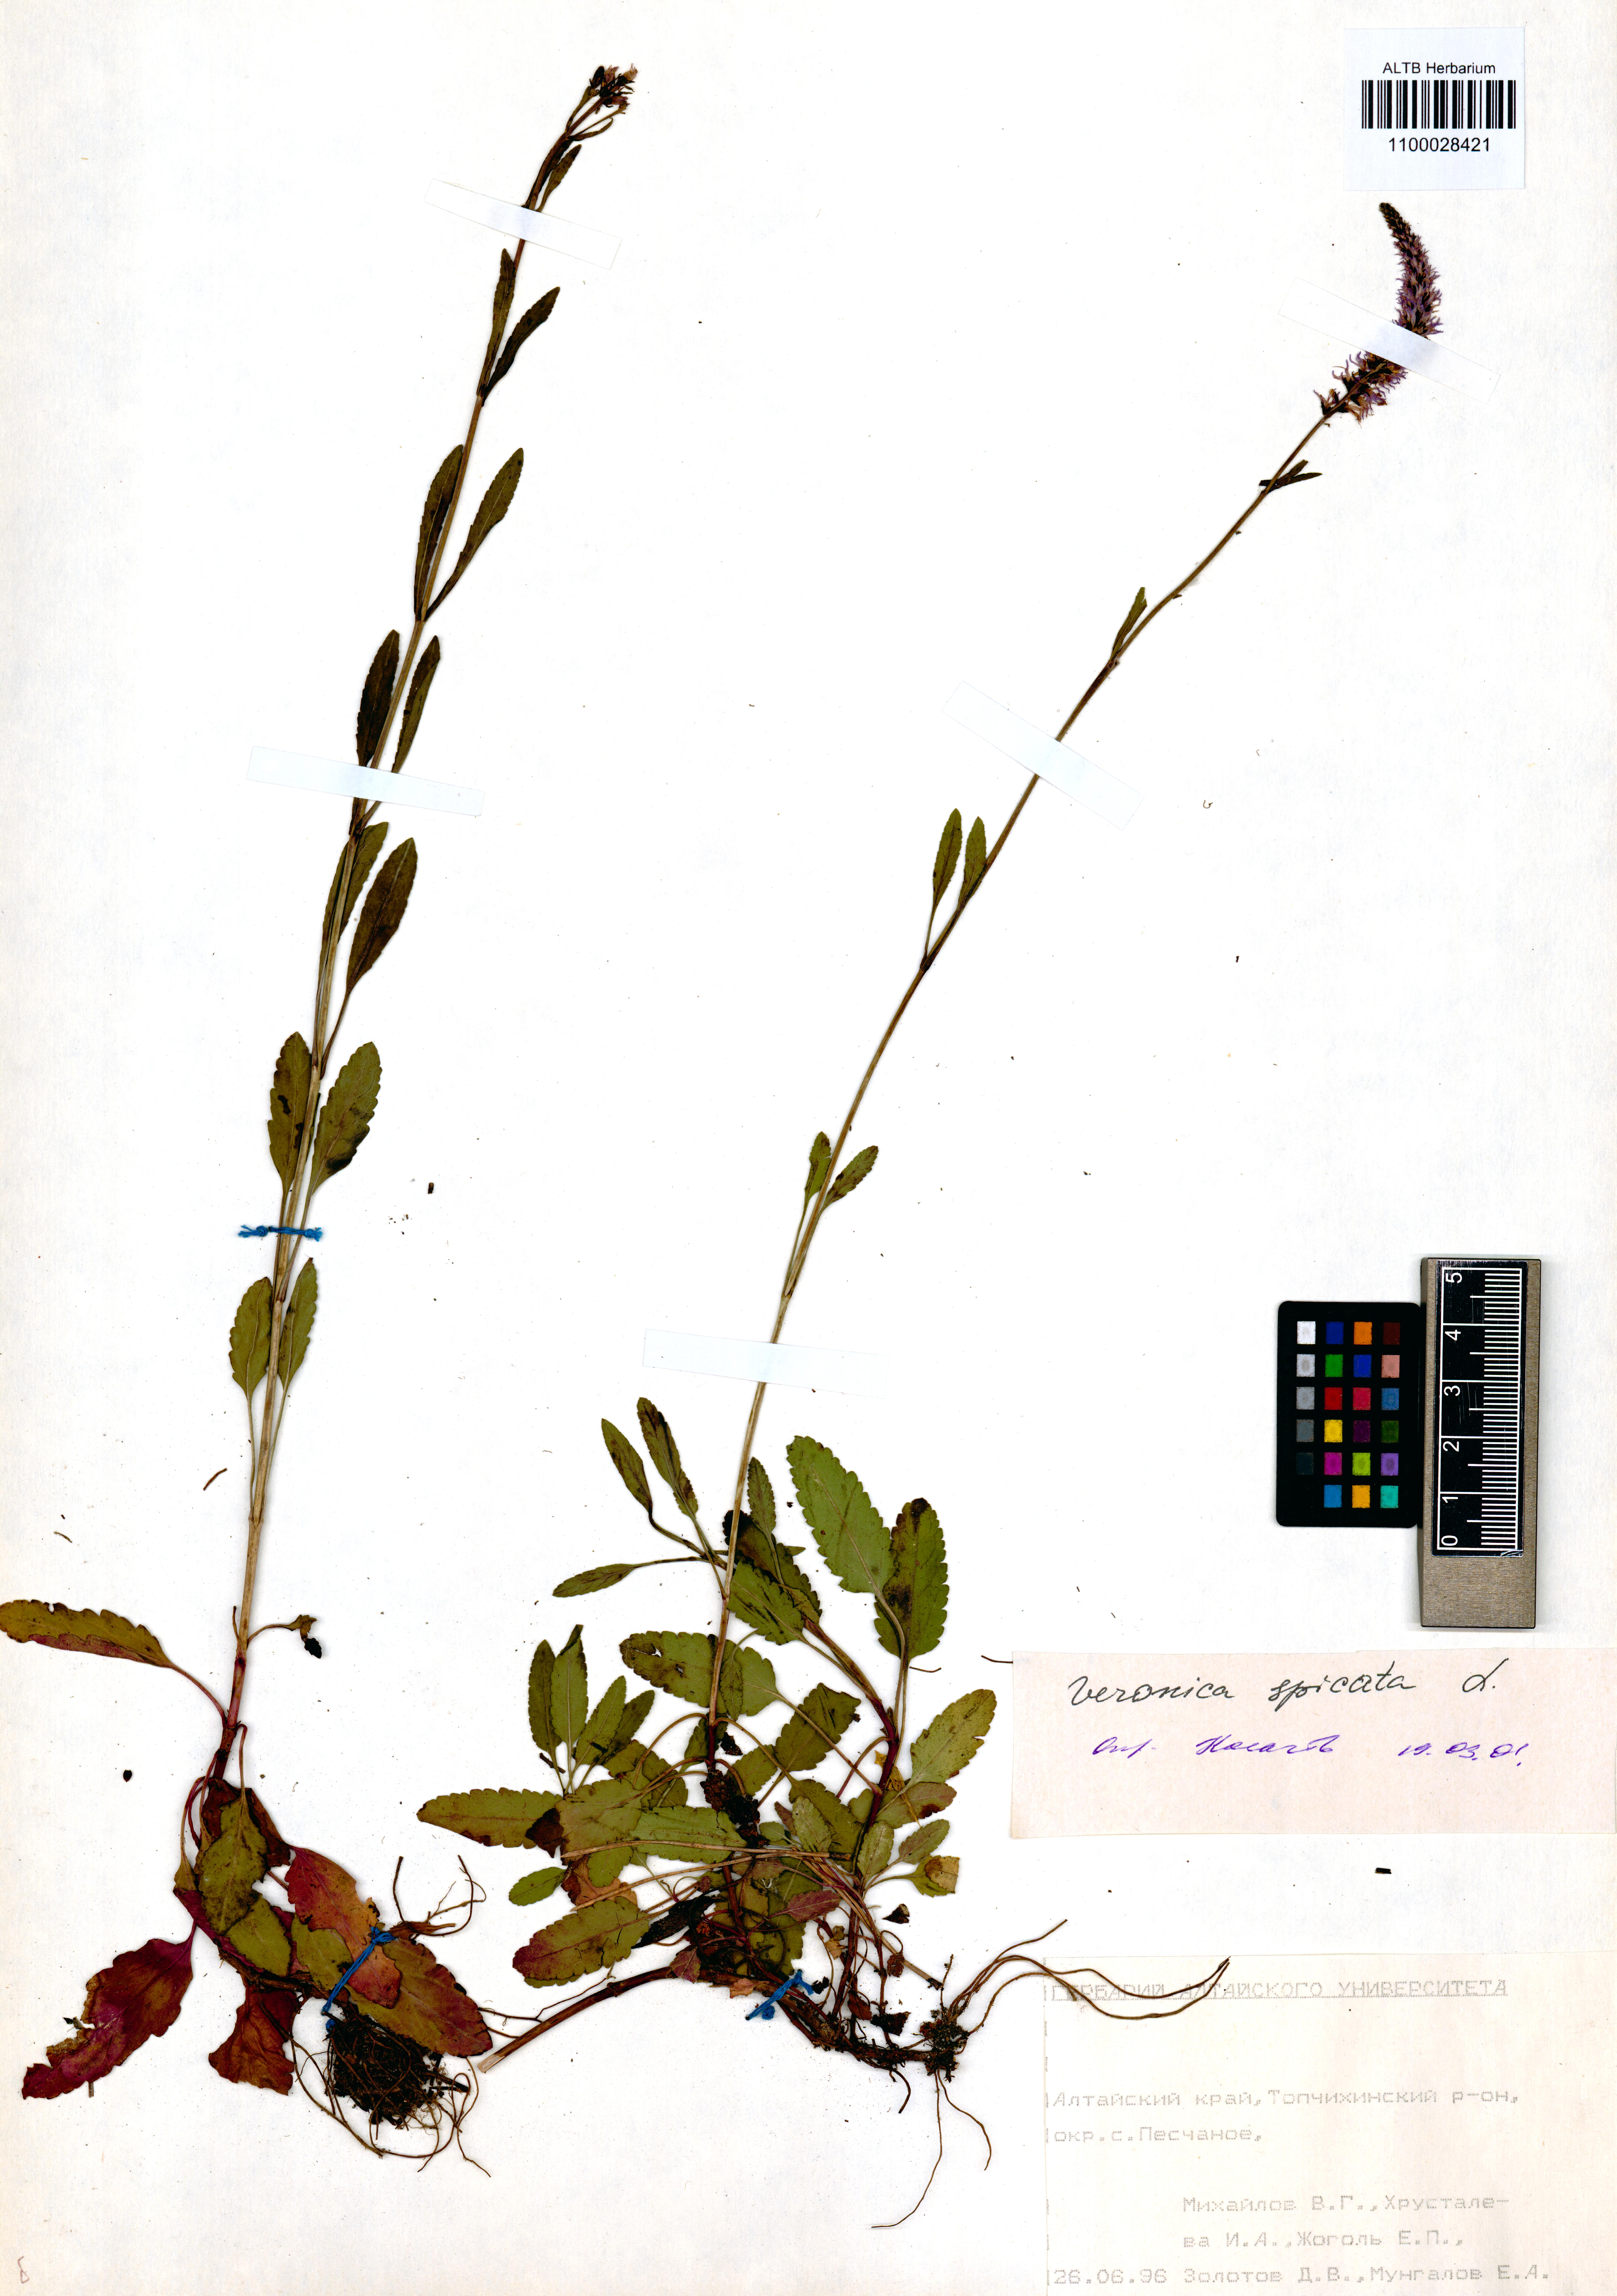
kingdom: Plantae
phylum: Tracheophyta
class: Magnoliopsida
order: Lamiales
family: Plantaginaceae
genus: Veronica
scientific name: Veronica spicata
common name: Spiked speedwell
